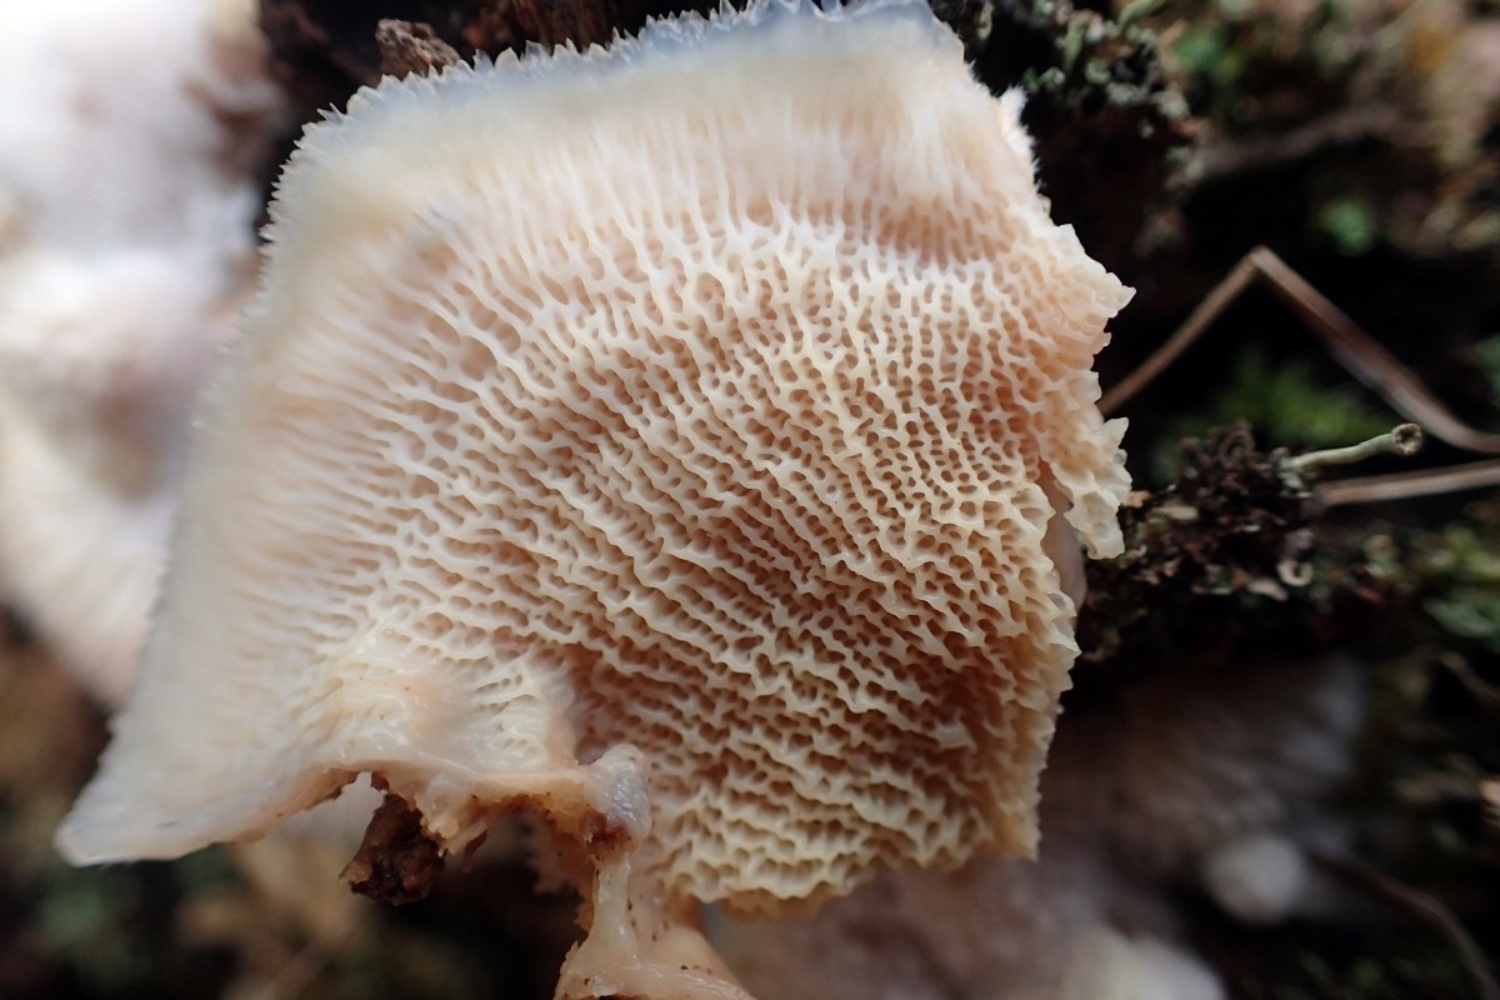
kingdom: Fungi
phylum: Basidiomycota
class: Agaricomycetes
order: Polyporales
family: Meruliaceae
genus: Phlebia
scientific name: Phlebia tremellosa
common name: bævrende åresvamp
